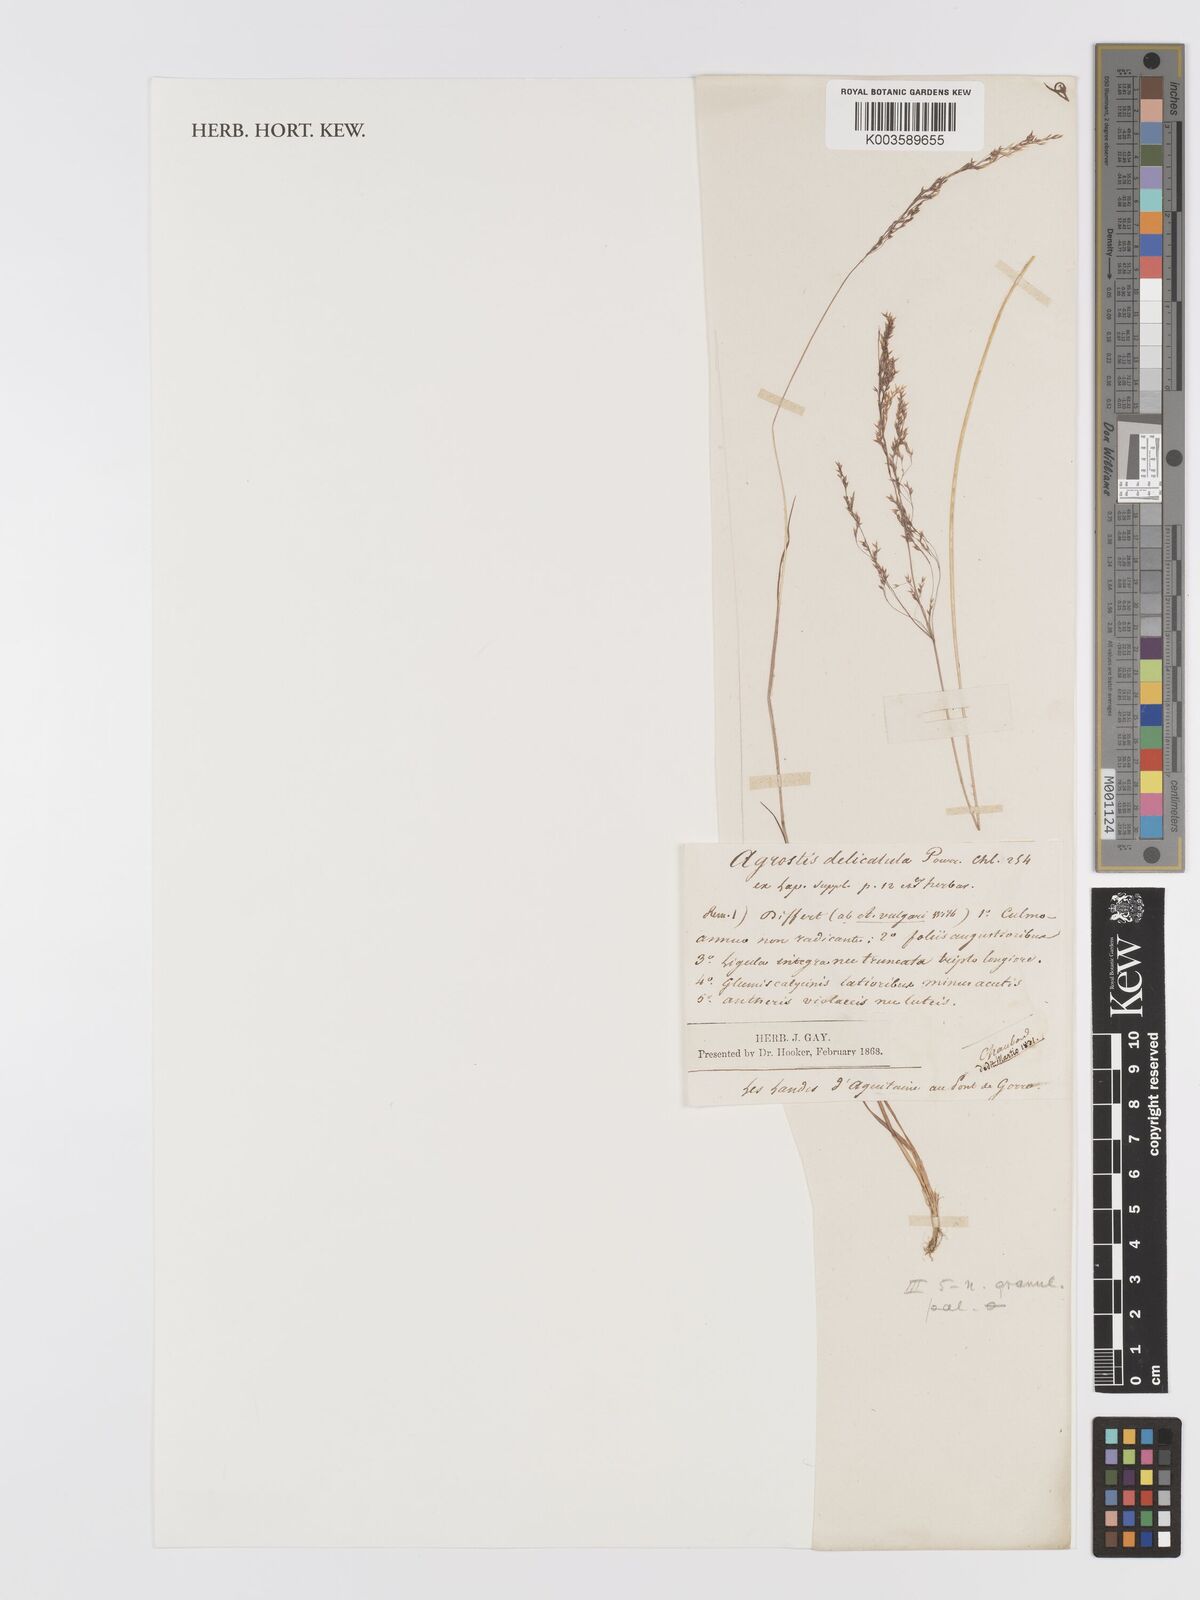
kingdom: Plantae
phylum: Tracheophyta
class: Liliopsida
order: Poales
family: Poaceae
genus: Aciachne
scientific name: Aciachne pulvinata
